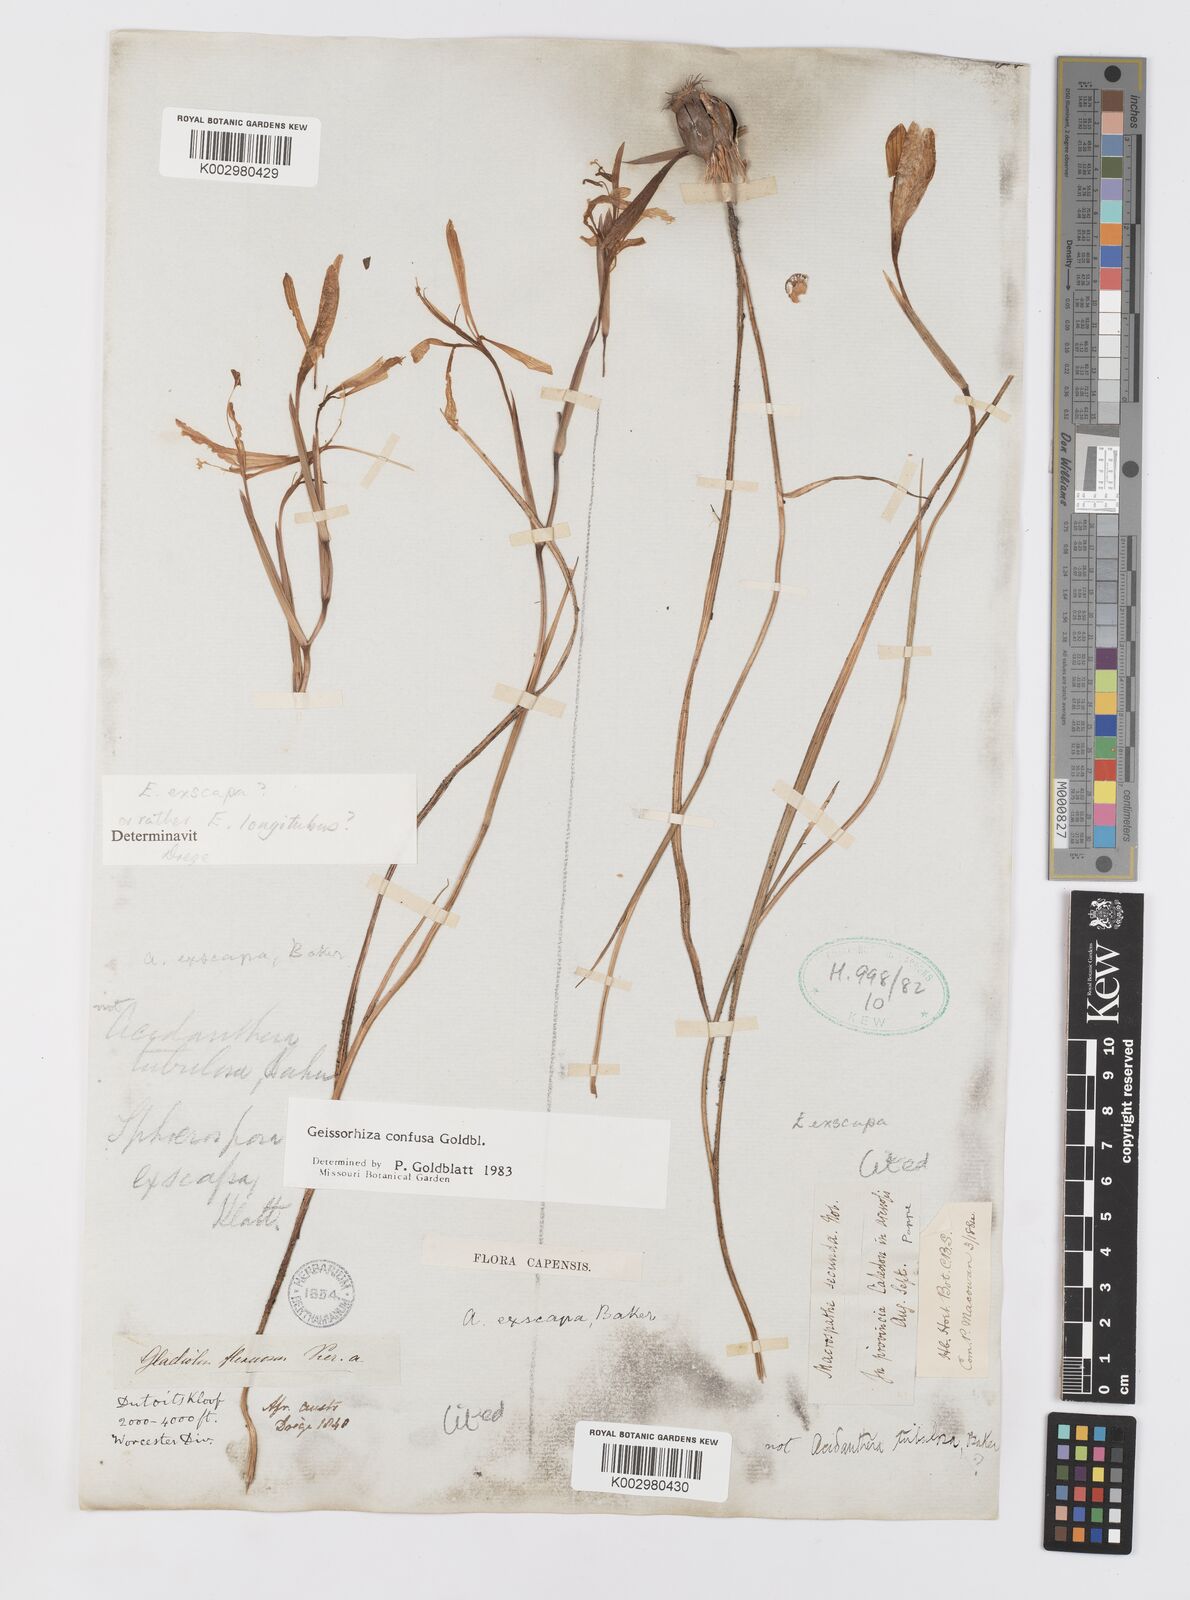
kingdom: Plantae
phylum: Tracheophyta
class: Liliopsida
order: Asparagales
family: Iridaceae
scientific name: Iridaceae
